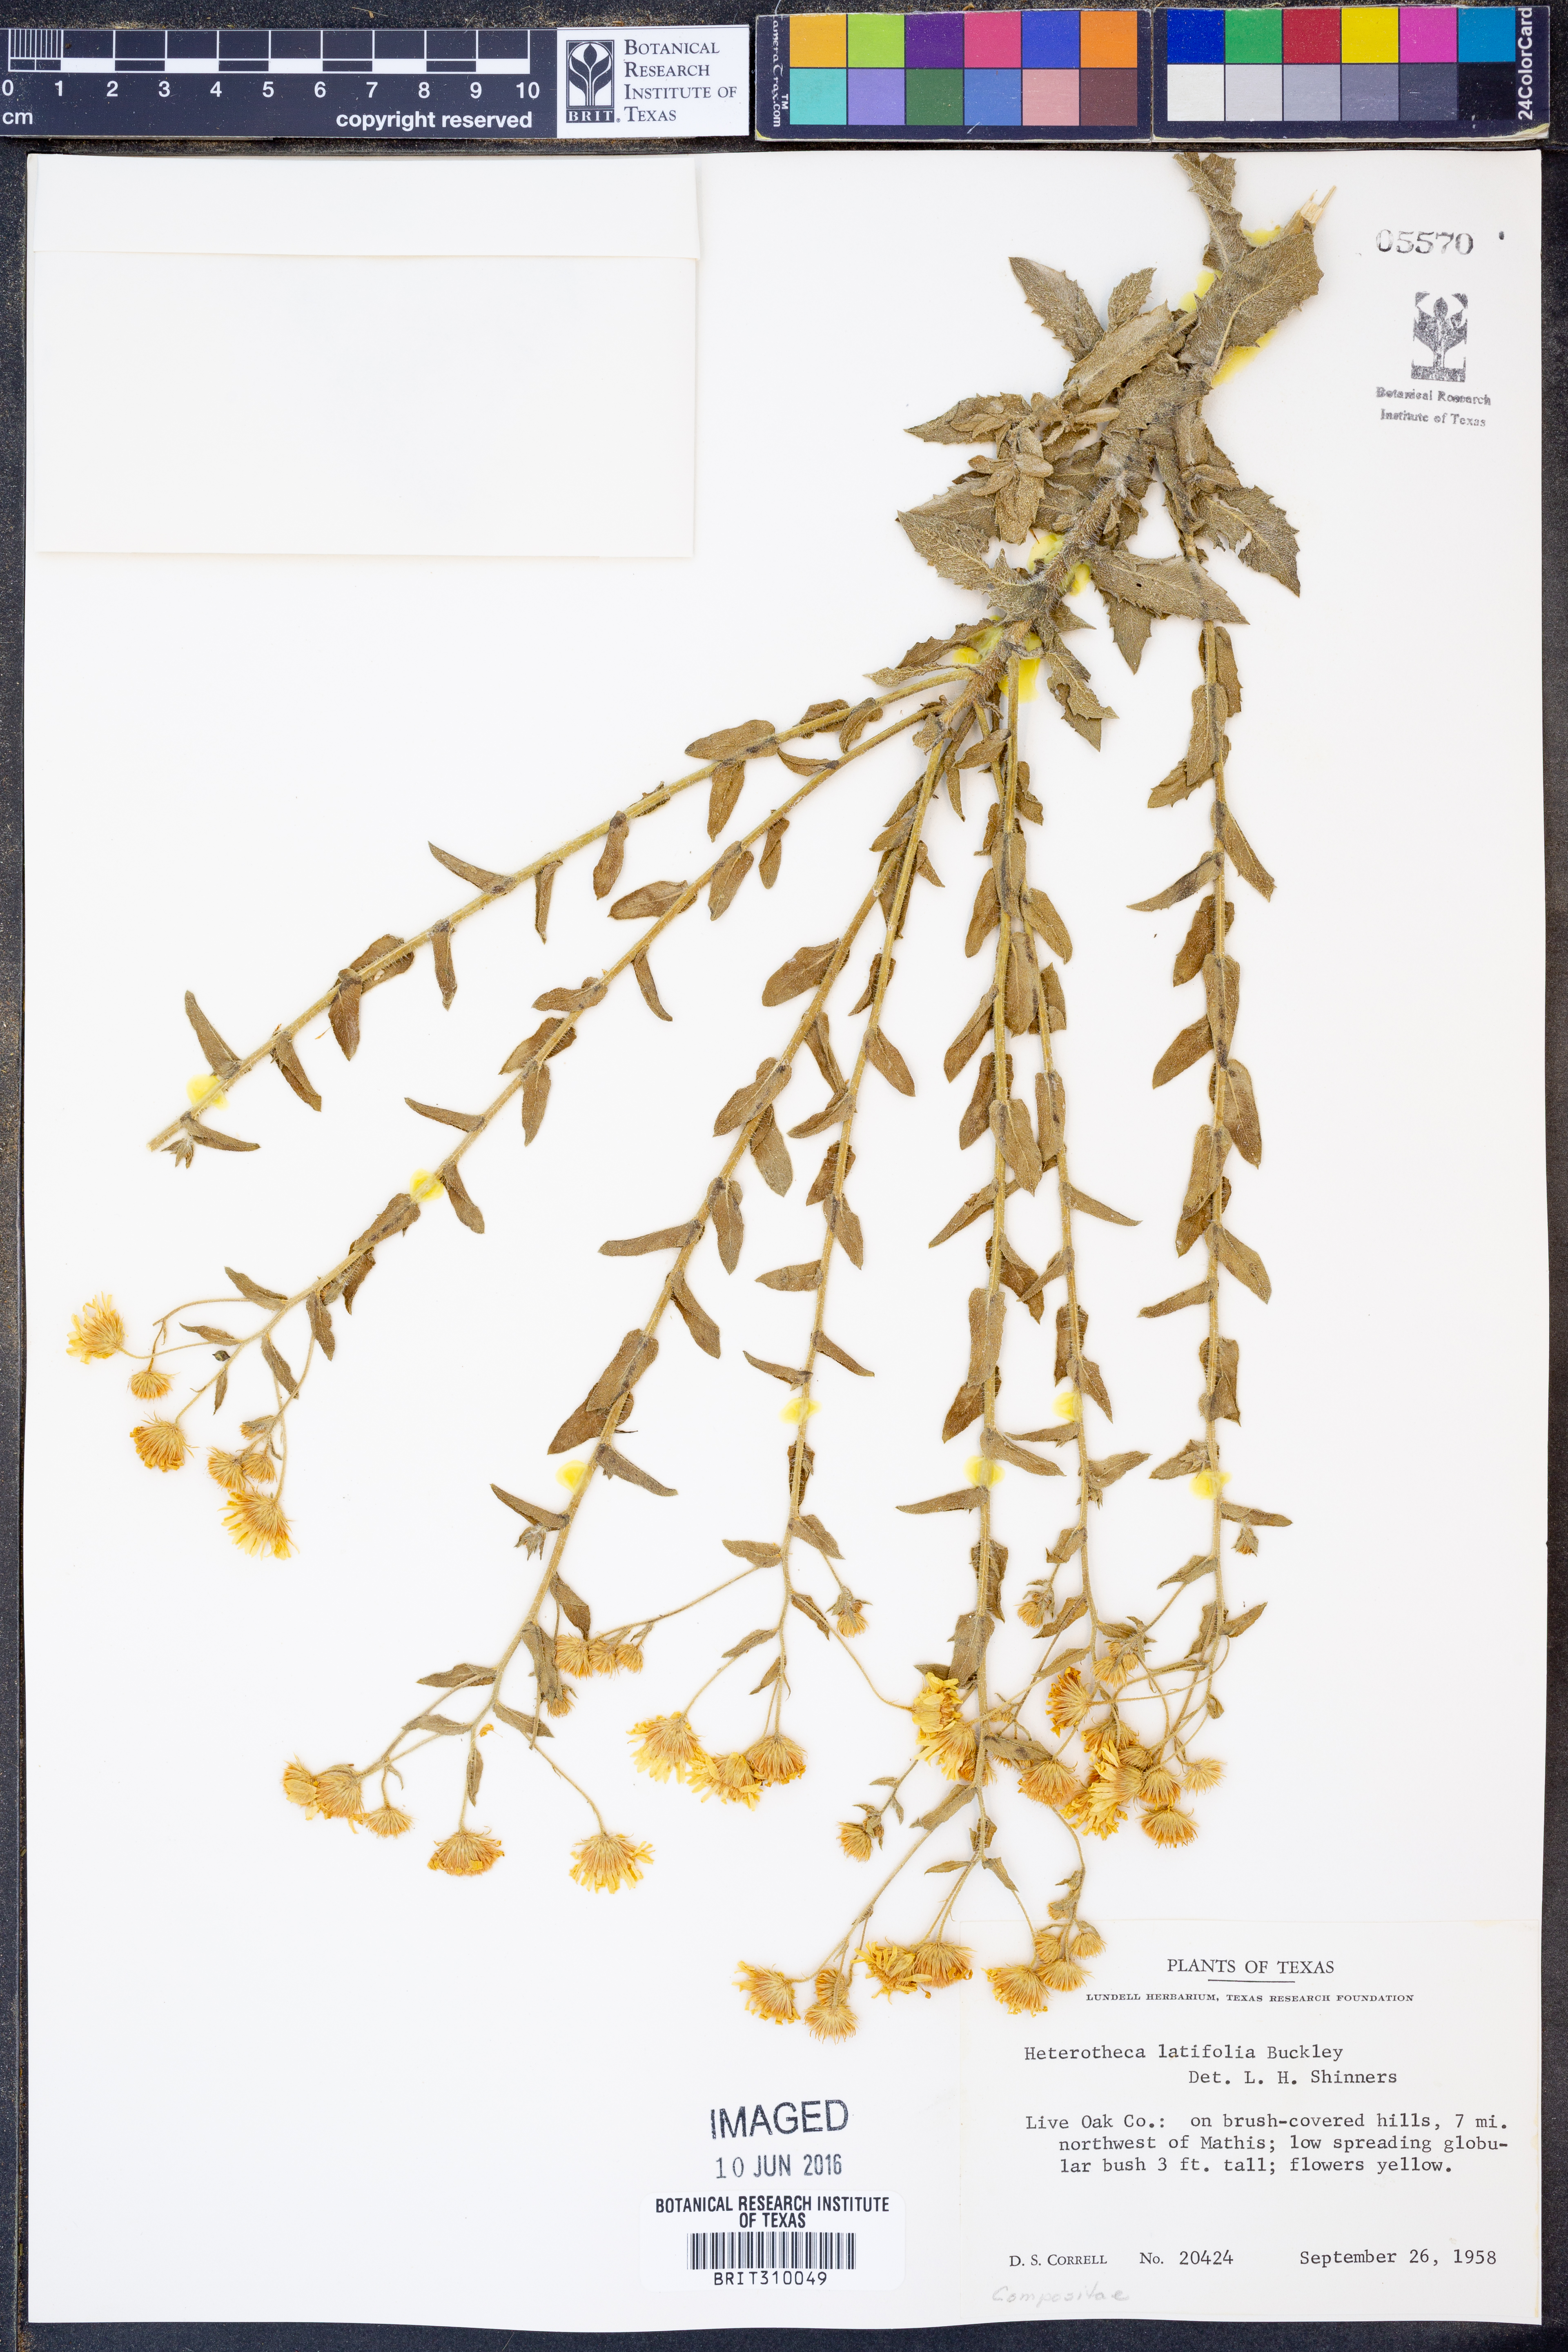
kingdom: Plantae
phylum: Tracheophyta
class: Magnoliopsida
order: Asterales
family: Asteraceae
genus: Heterotheca
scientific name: Heterotheca subaxillaris
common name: Camphorweed
